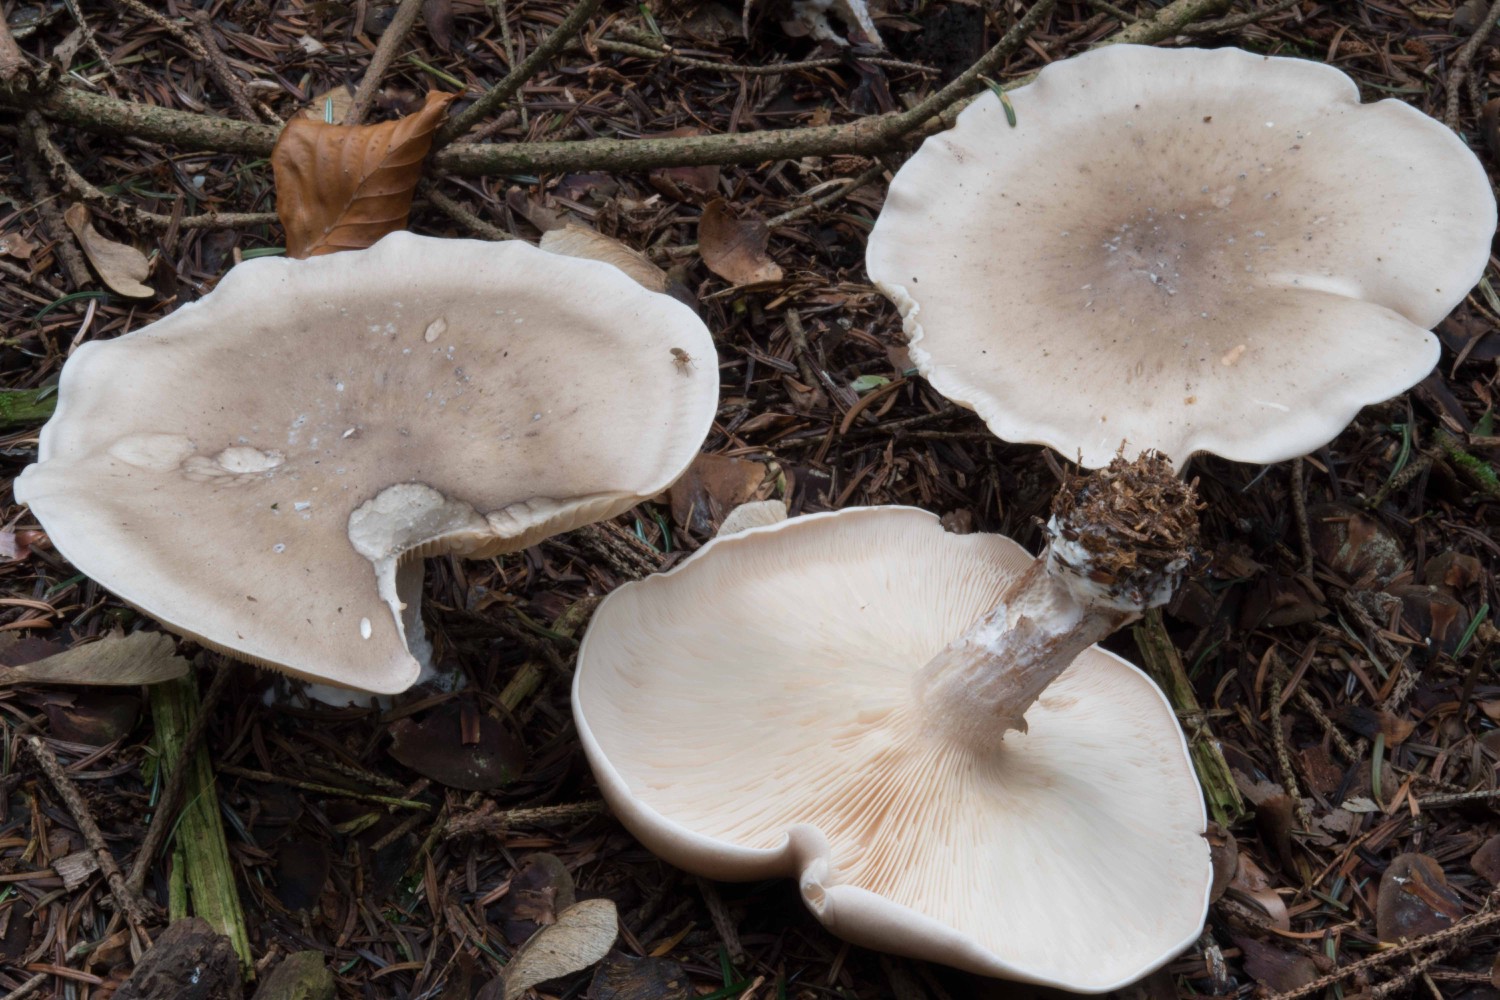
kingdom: Fungi
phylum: Basidiomycota
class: Agaricomycetes
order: Agaricales
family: Tricholomataceae
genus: Clitocybe
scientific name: Clitocybe nebularis
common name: tåge-tragthat
